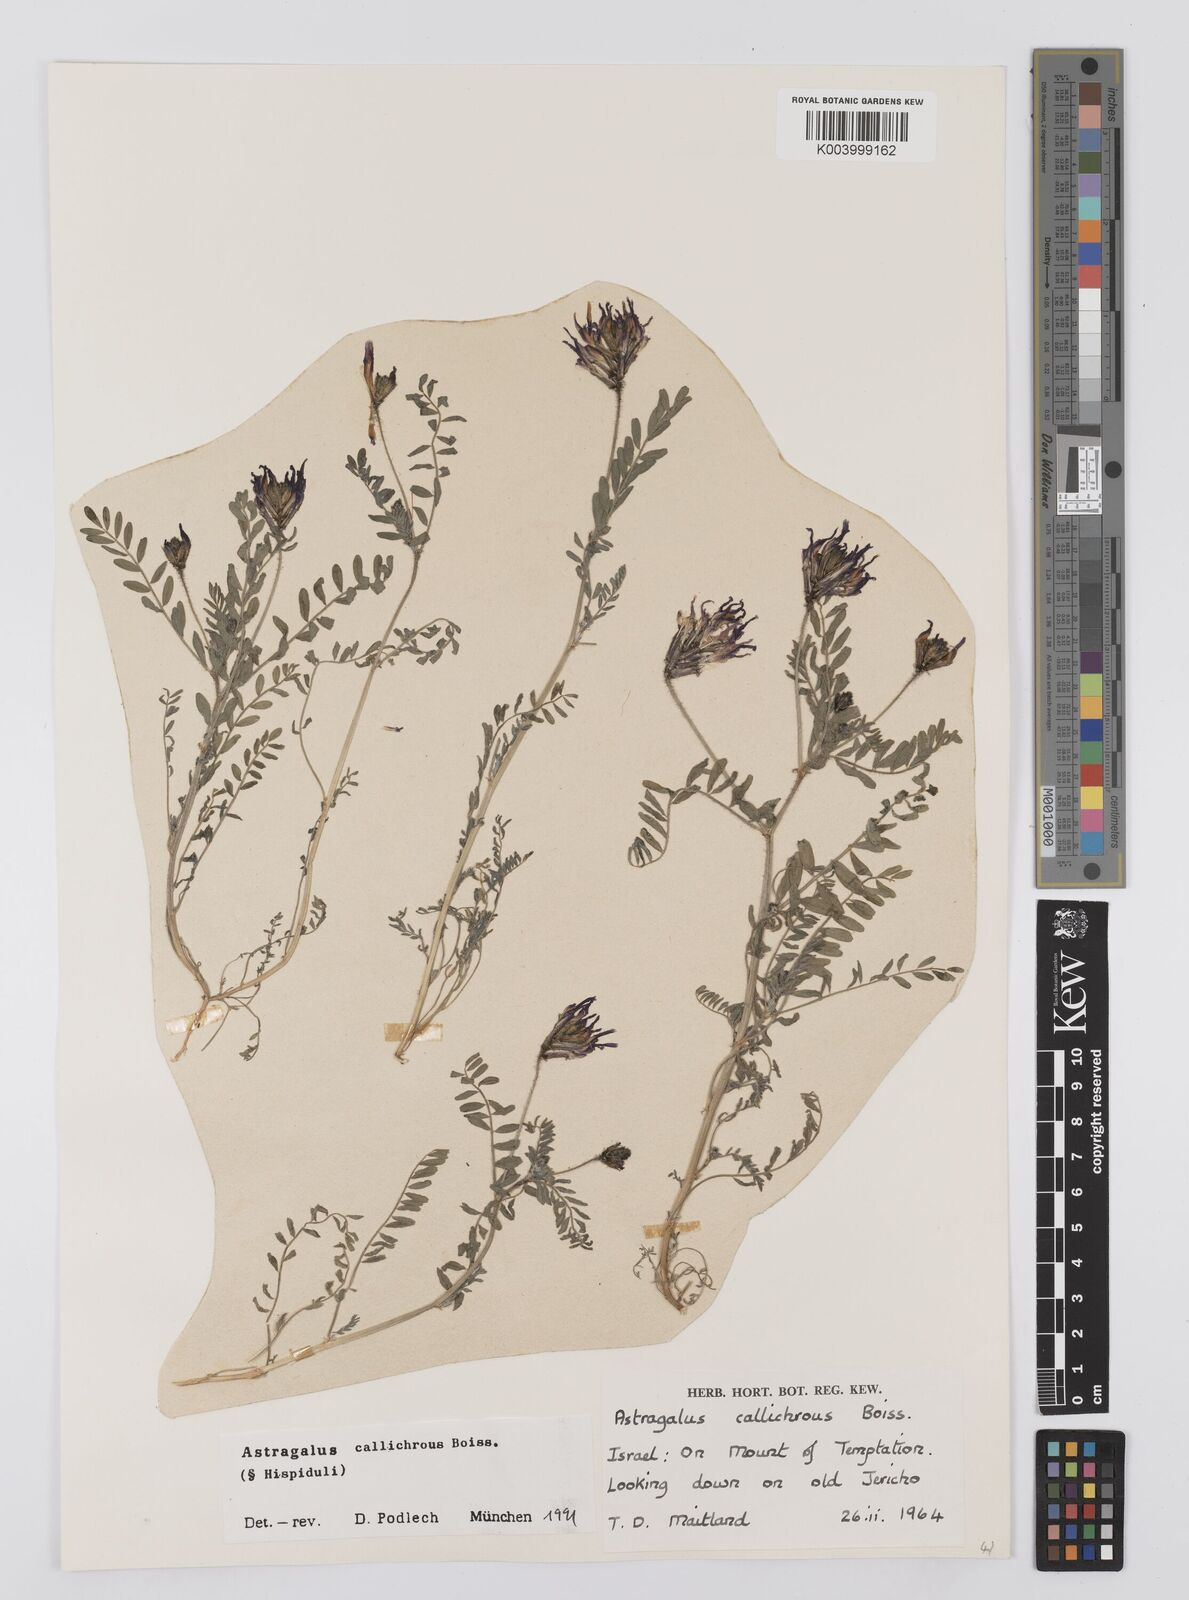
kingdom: Plantae
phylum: Tracheophyta
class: Magnoliopsida
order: Fabales
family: Fabaceae
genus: Astragalus
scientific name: Astragalus callichrous
